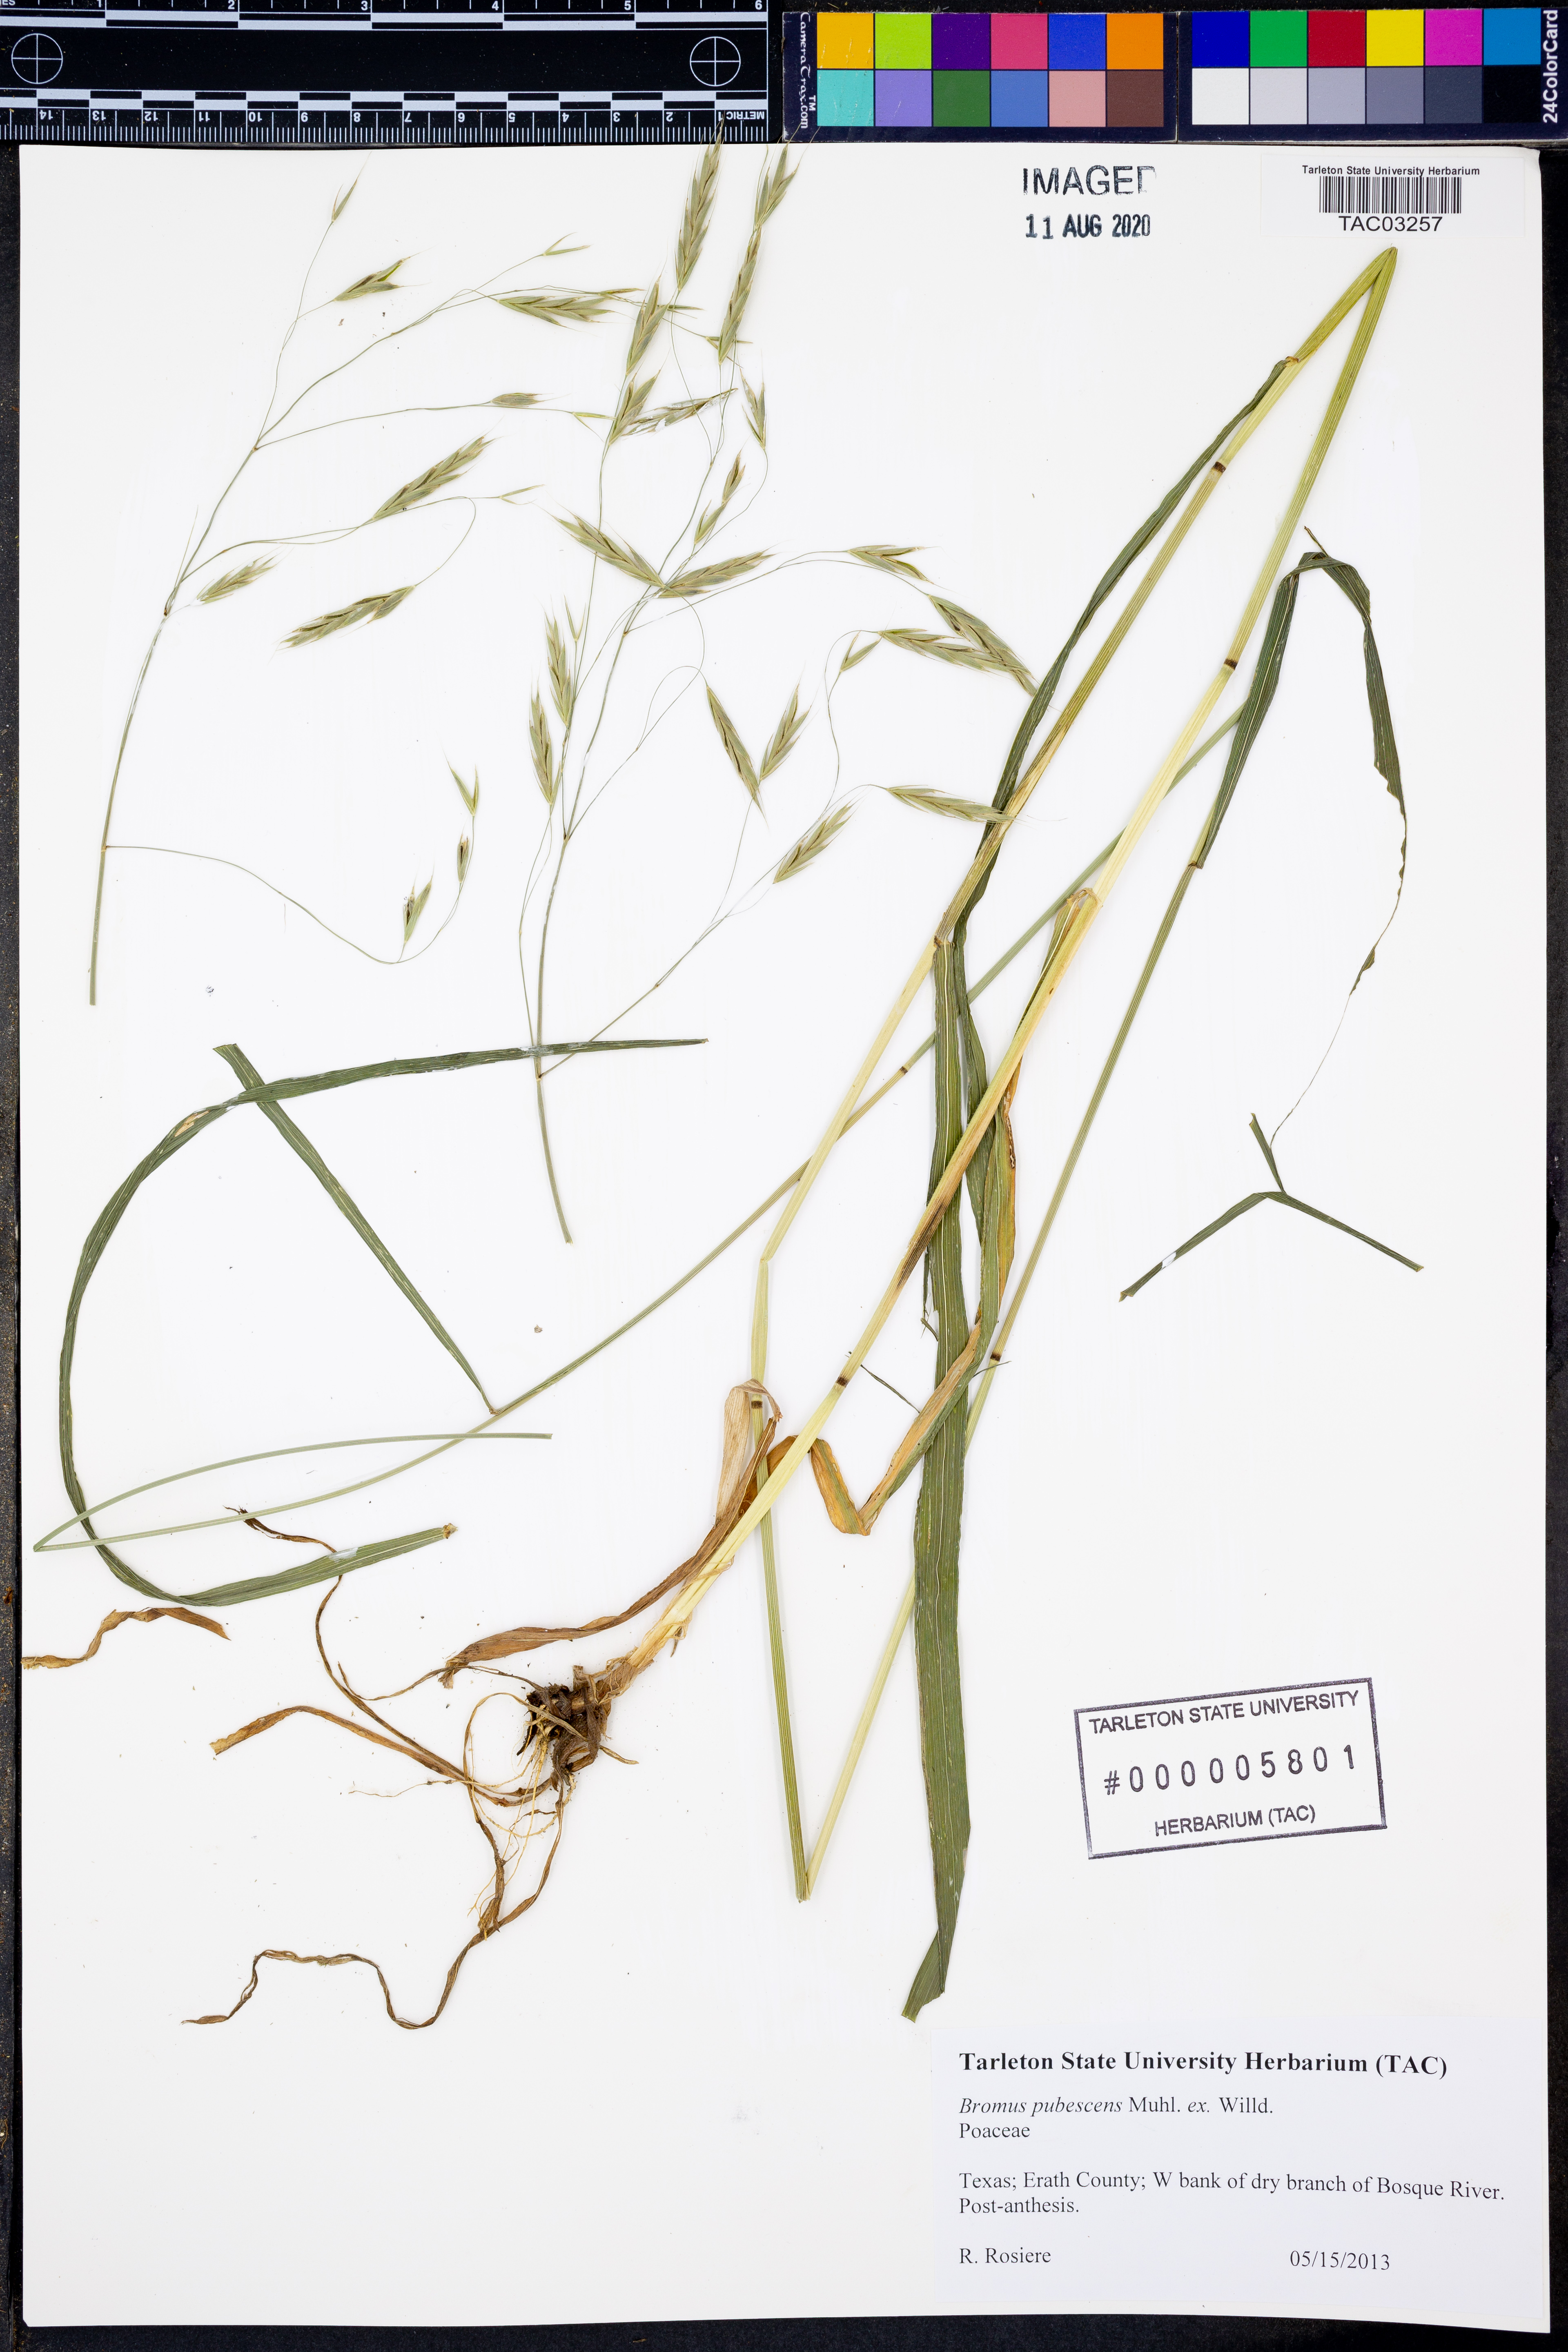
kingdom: Plantae
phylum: Tracheophyta
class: Liliopsida
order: Poales
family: Poaceae
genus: Bromus
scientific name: Bromus japonicus
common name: Japanese brome
